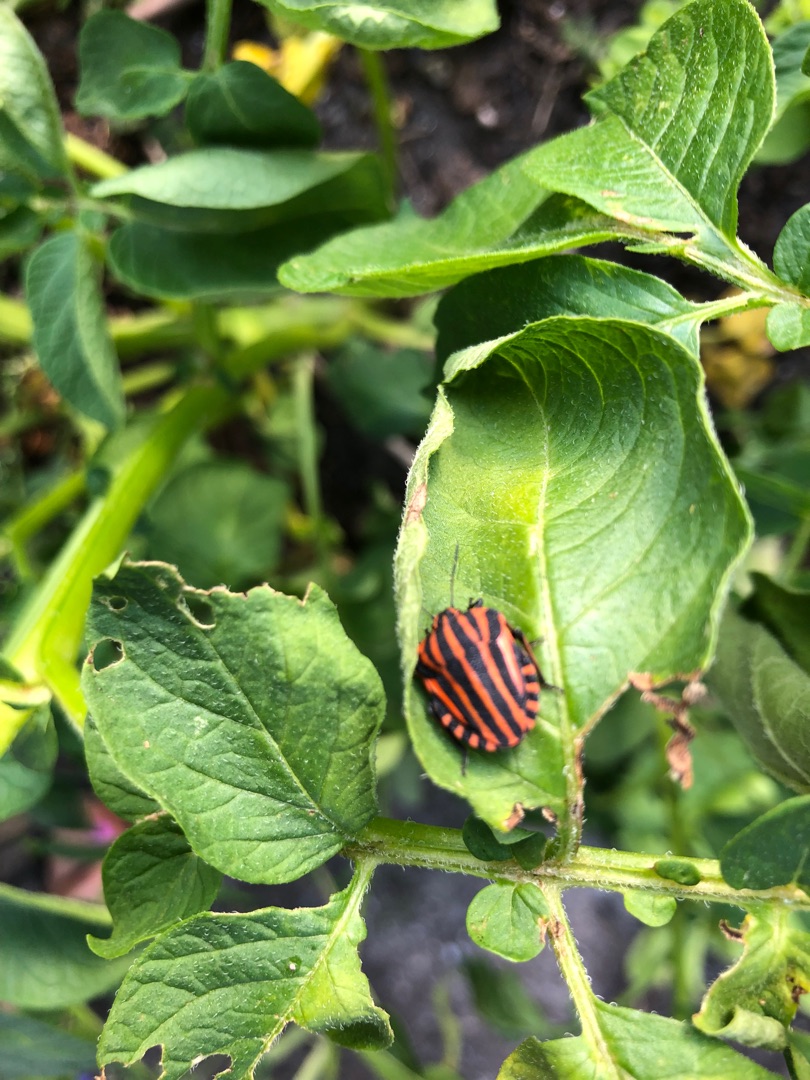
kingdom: Animalia
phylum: Arthropoda
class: Insecta
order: Hemiptera
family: Pentatomidae
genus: Graphosoma
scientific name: Graphosoma italicum
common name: Stribetæge
